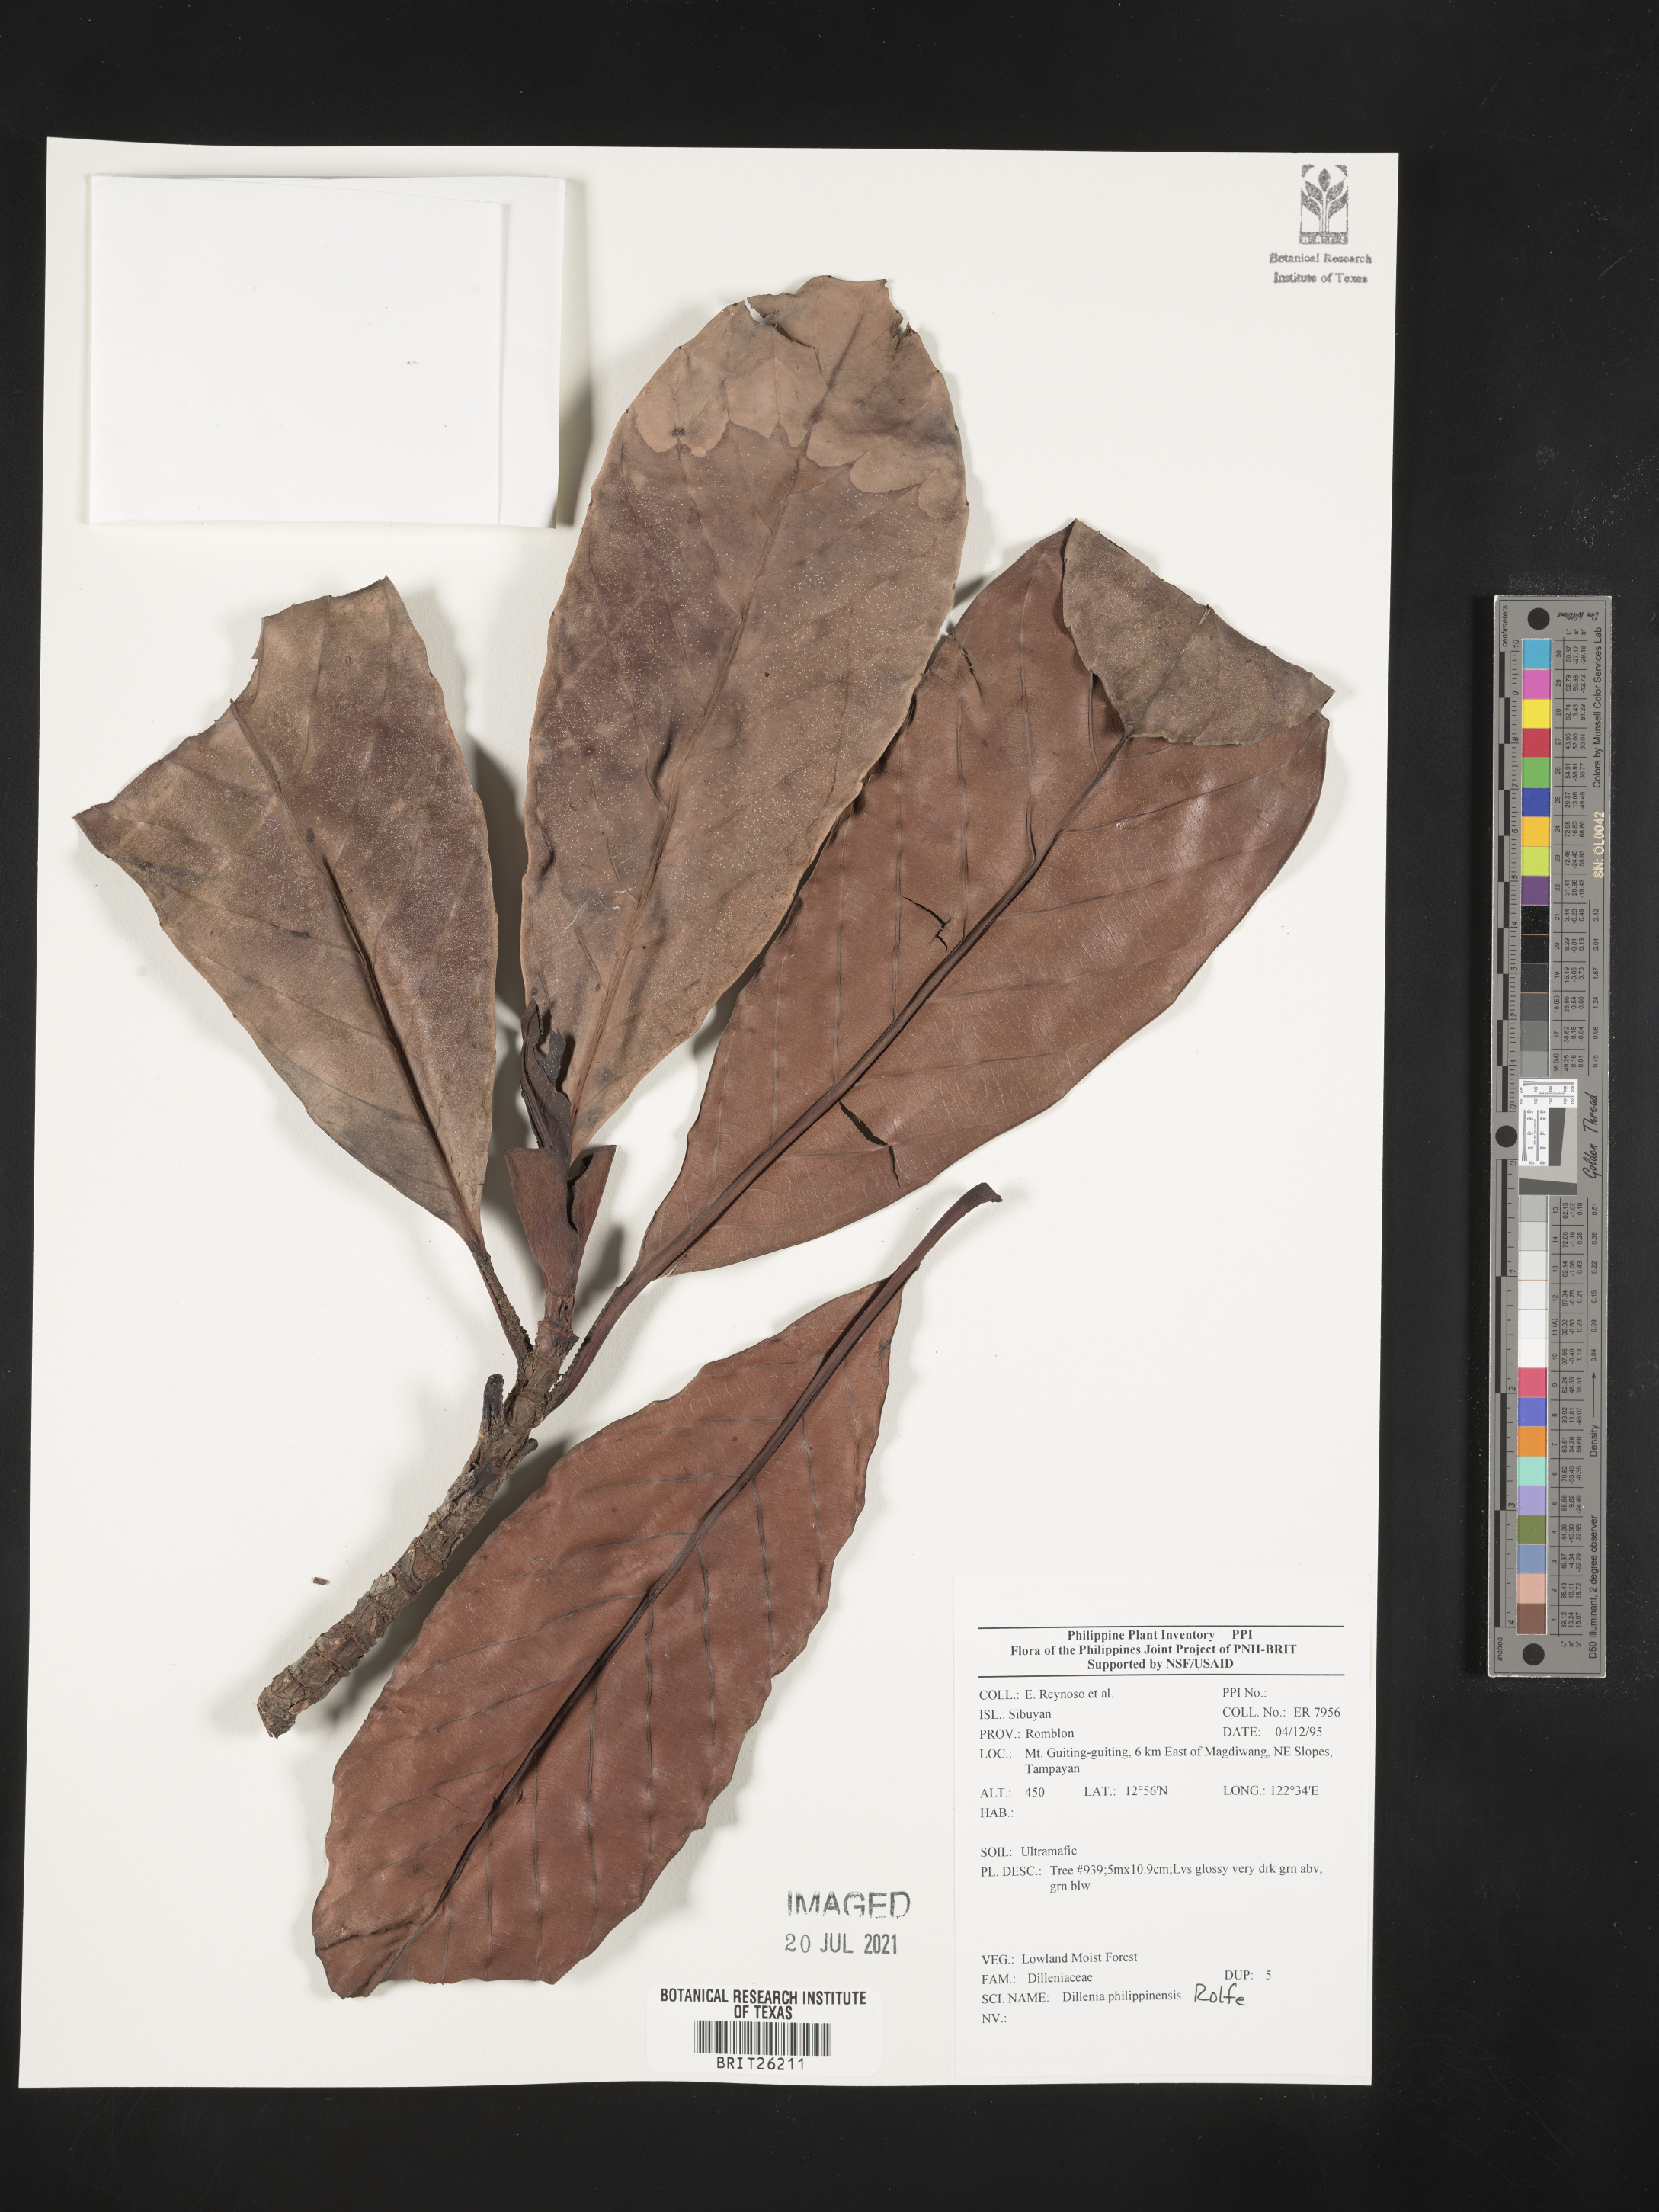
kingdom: Plantae
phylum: Tracheophyta
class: Magnoliopsida
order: Dilleniales
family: Dilleniaceae
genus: Dillenia
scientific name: Dillenia philippinensis
